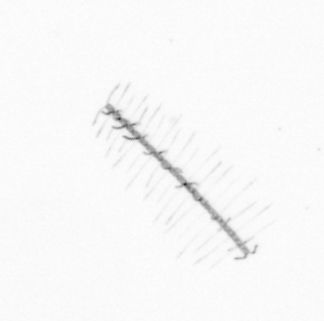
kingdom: Chromista
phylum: Ochrophyta
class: Bacillariophyceae
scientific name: Bacillariophyceae
